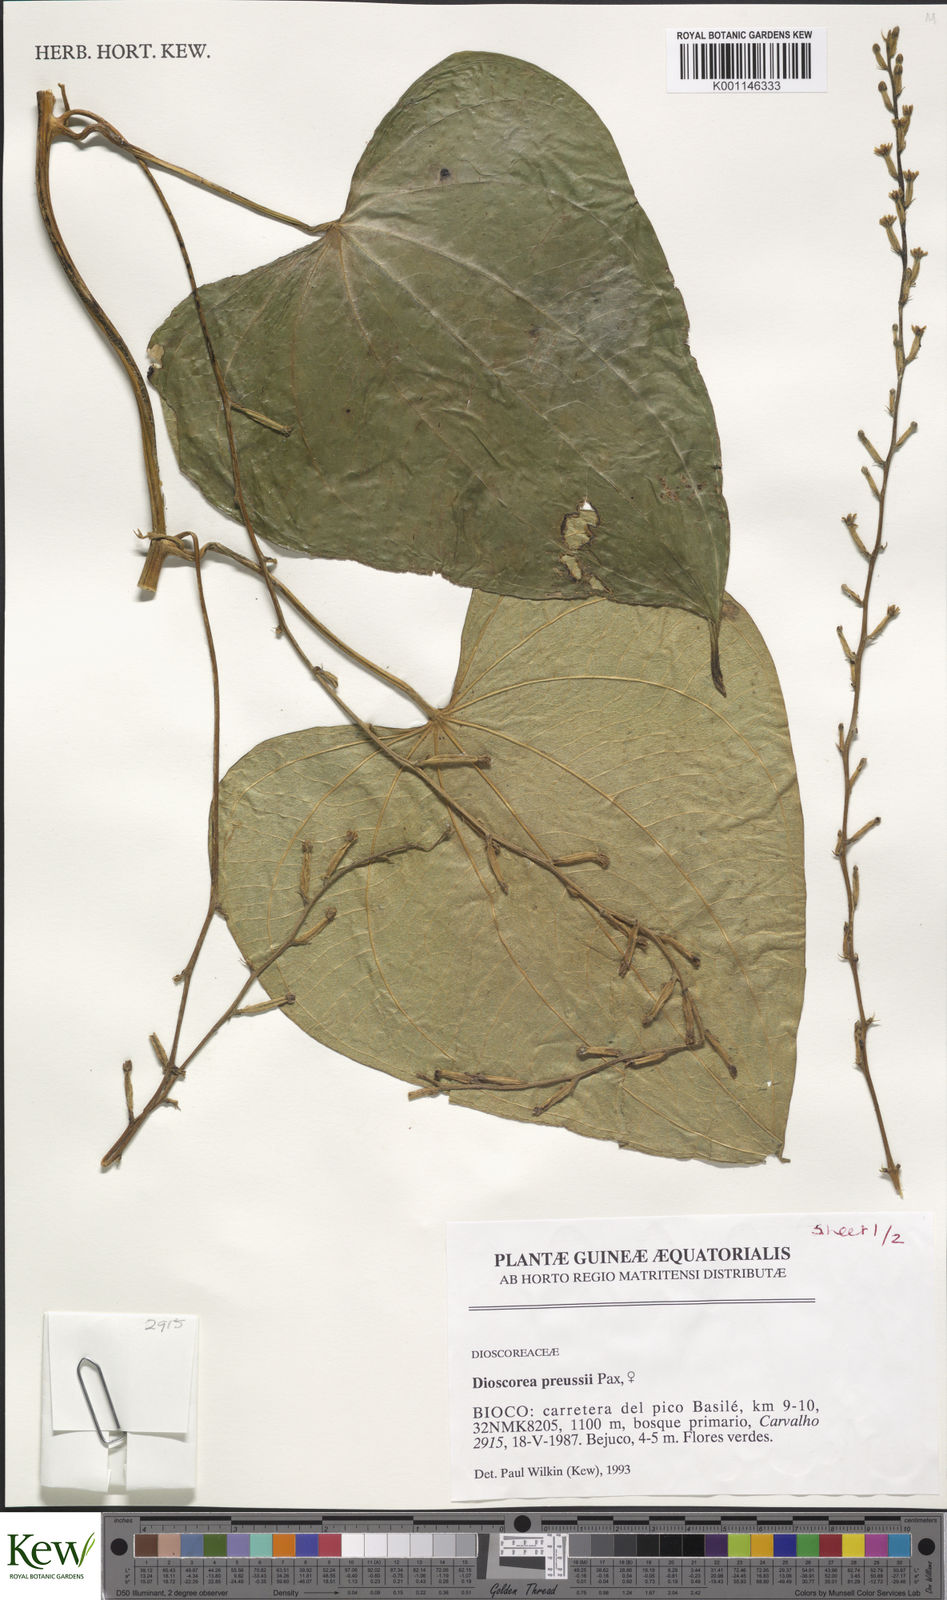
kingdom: Plantae
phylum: Tracheophyta
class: Liliopsida
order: Dioscoreales
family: Dioscoreaceae
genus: Dioscorea
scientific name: Dioscorea preussii
